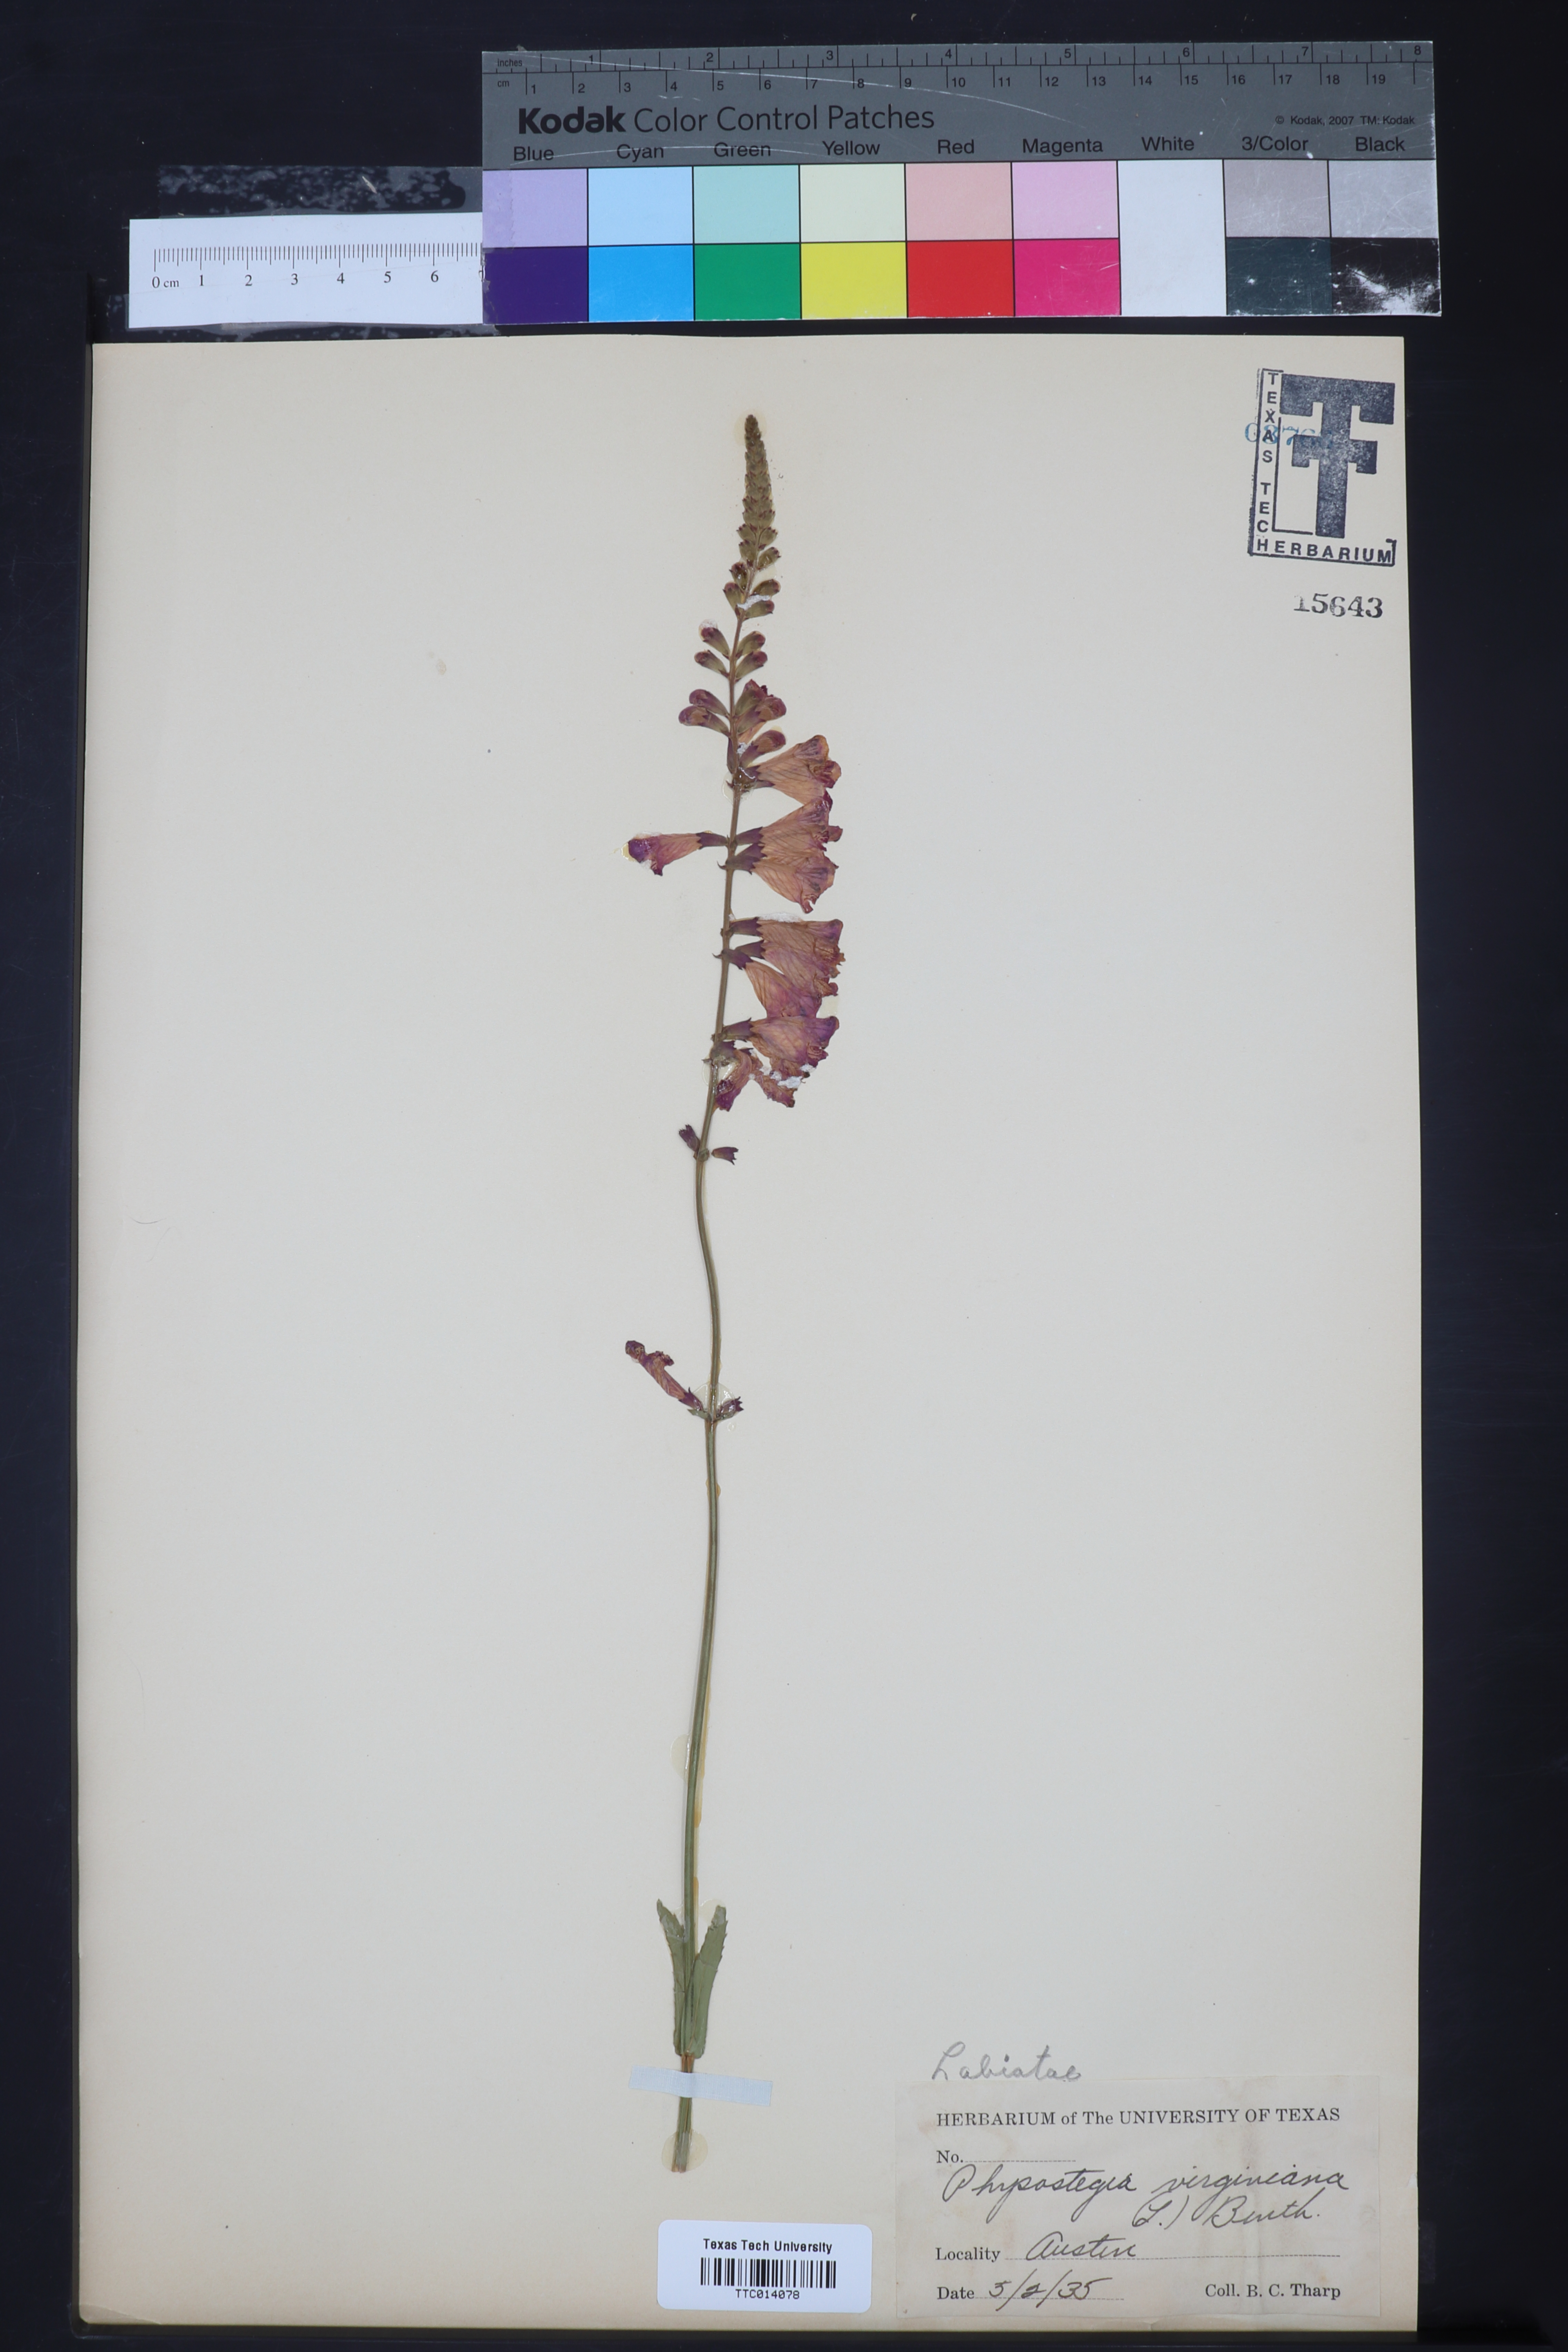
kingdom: Plantae
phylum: Tracheophyta
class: Magnoliopsida
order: Lamiales
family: Lamiaceae
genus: Physostegia
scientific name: Physostegia virginiana
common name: Obedient-plant
